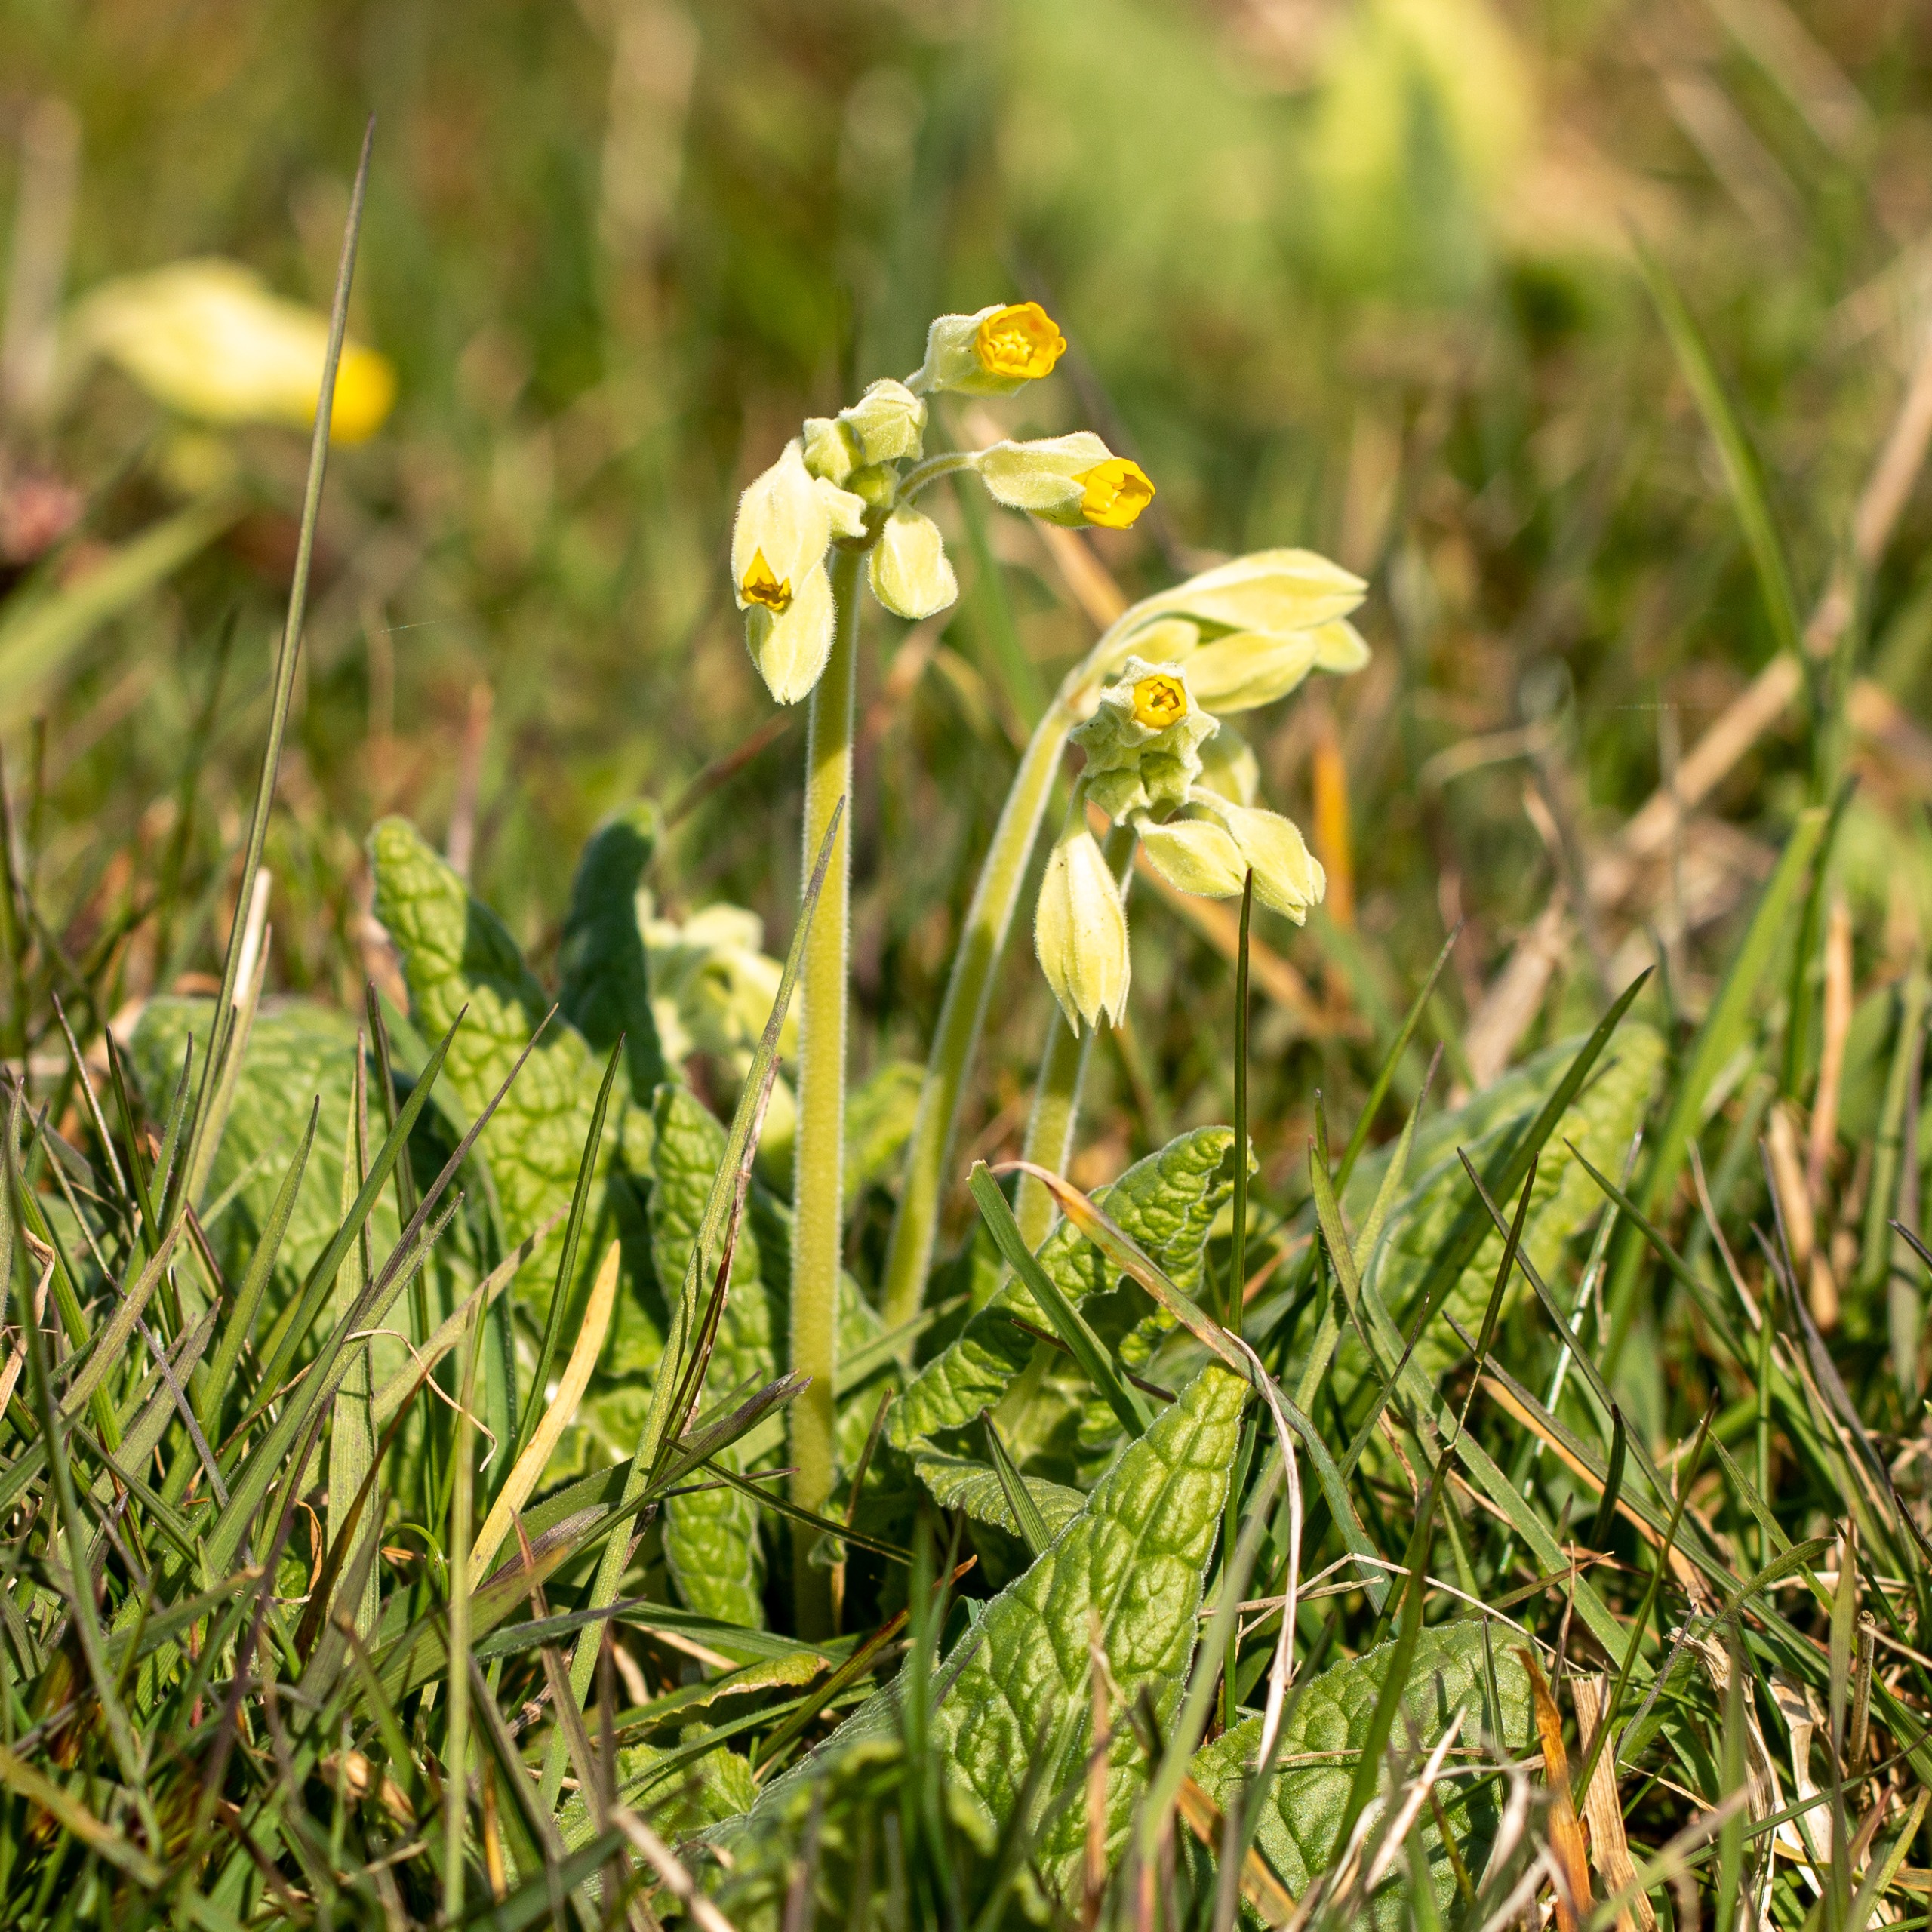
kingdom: Plantae
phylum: Tracheophyta
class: Magnoliopsida
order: Ericales
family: Primulaceae
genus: Primula
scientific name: Primula veris
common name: Hulkravet kodriver
